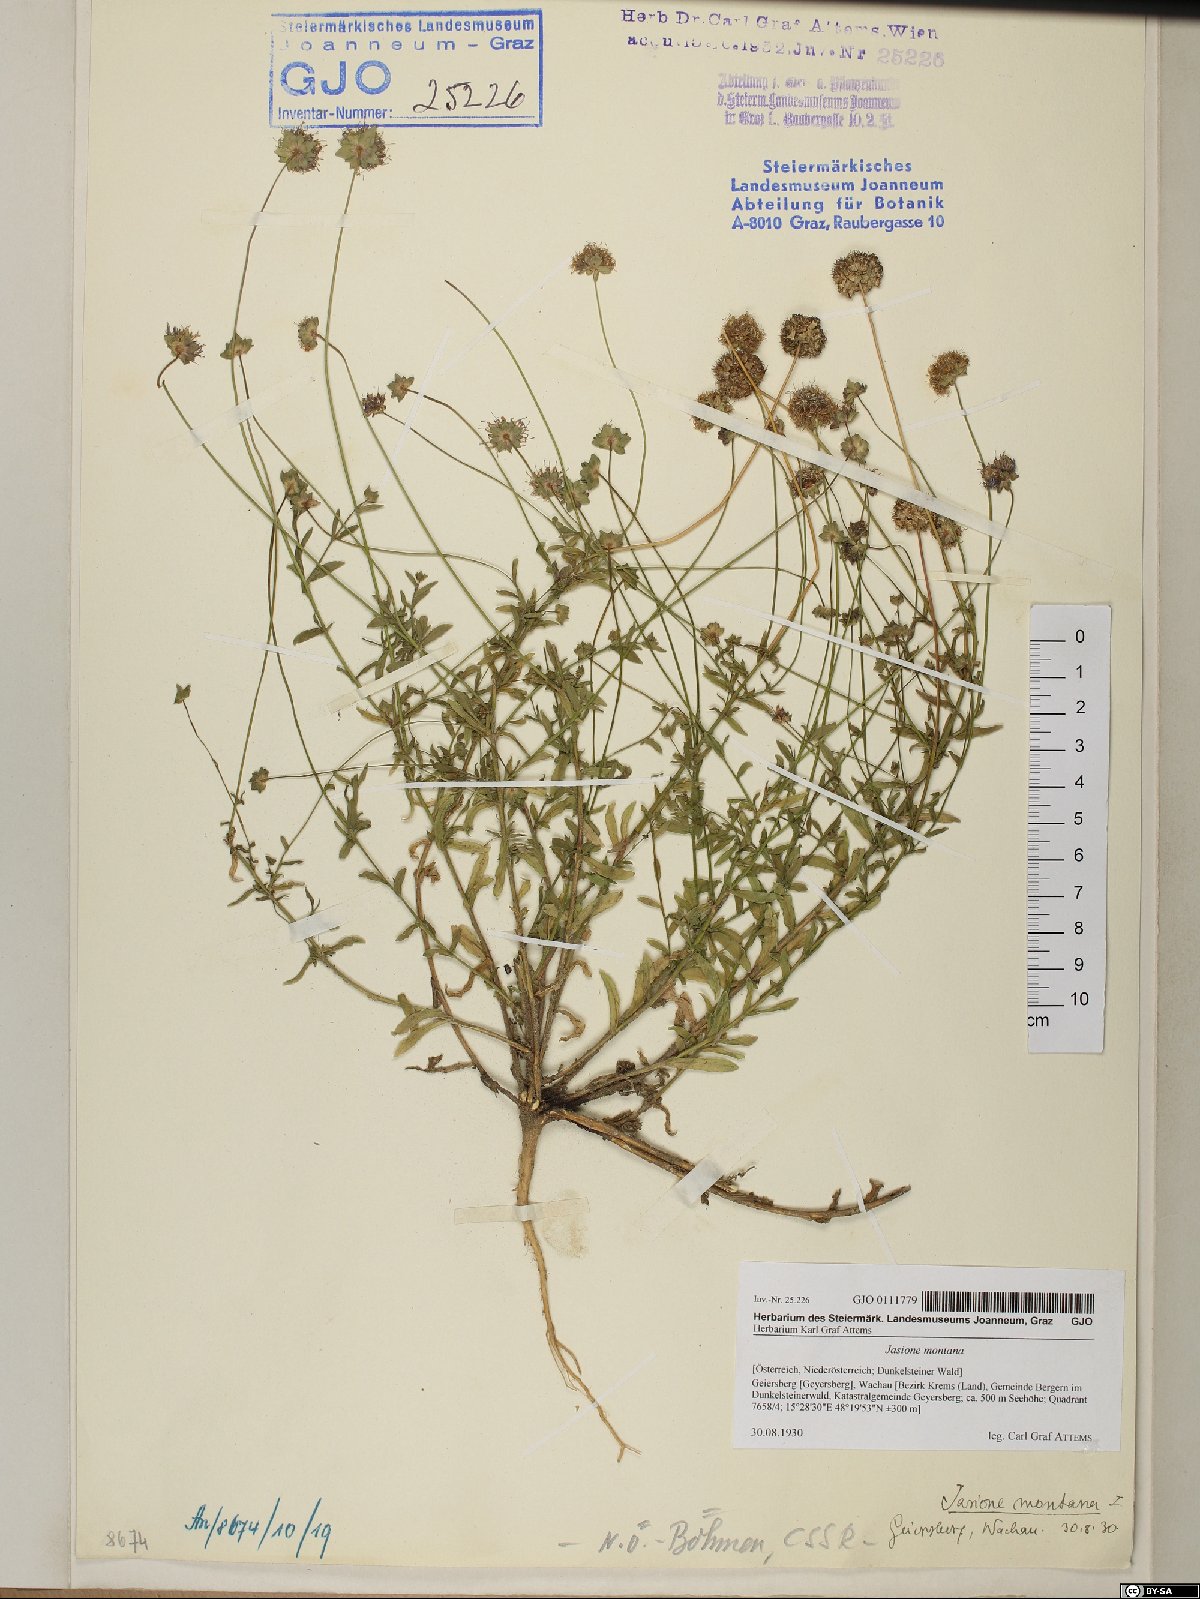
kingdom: Plantae
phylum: Tracheophyta
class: Magnoliopsida
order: Asterales
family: Campanulaceae
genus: Jasione
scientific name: Jasione montana
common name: Sheep's-bit
